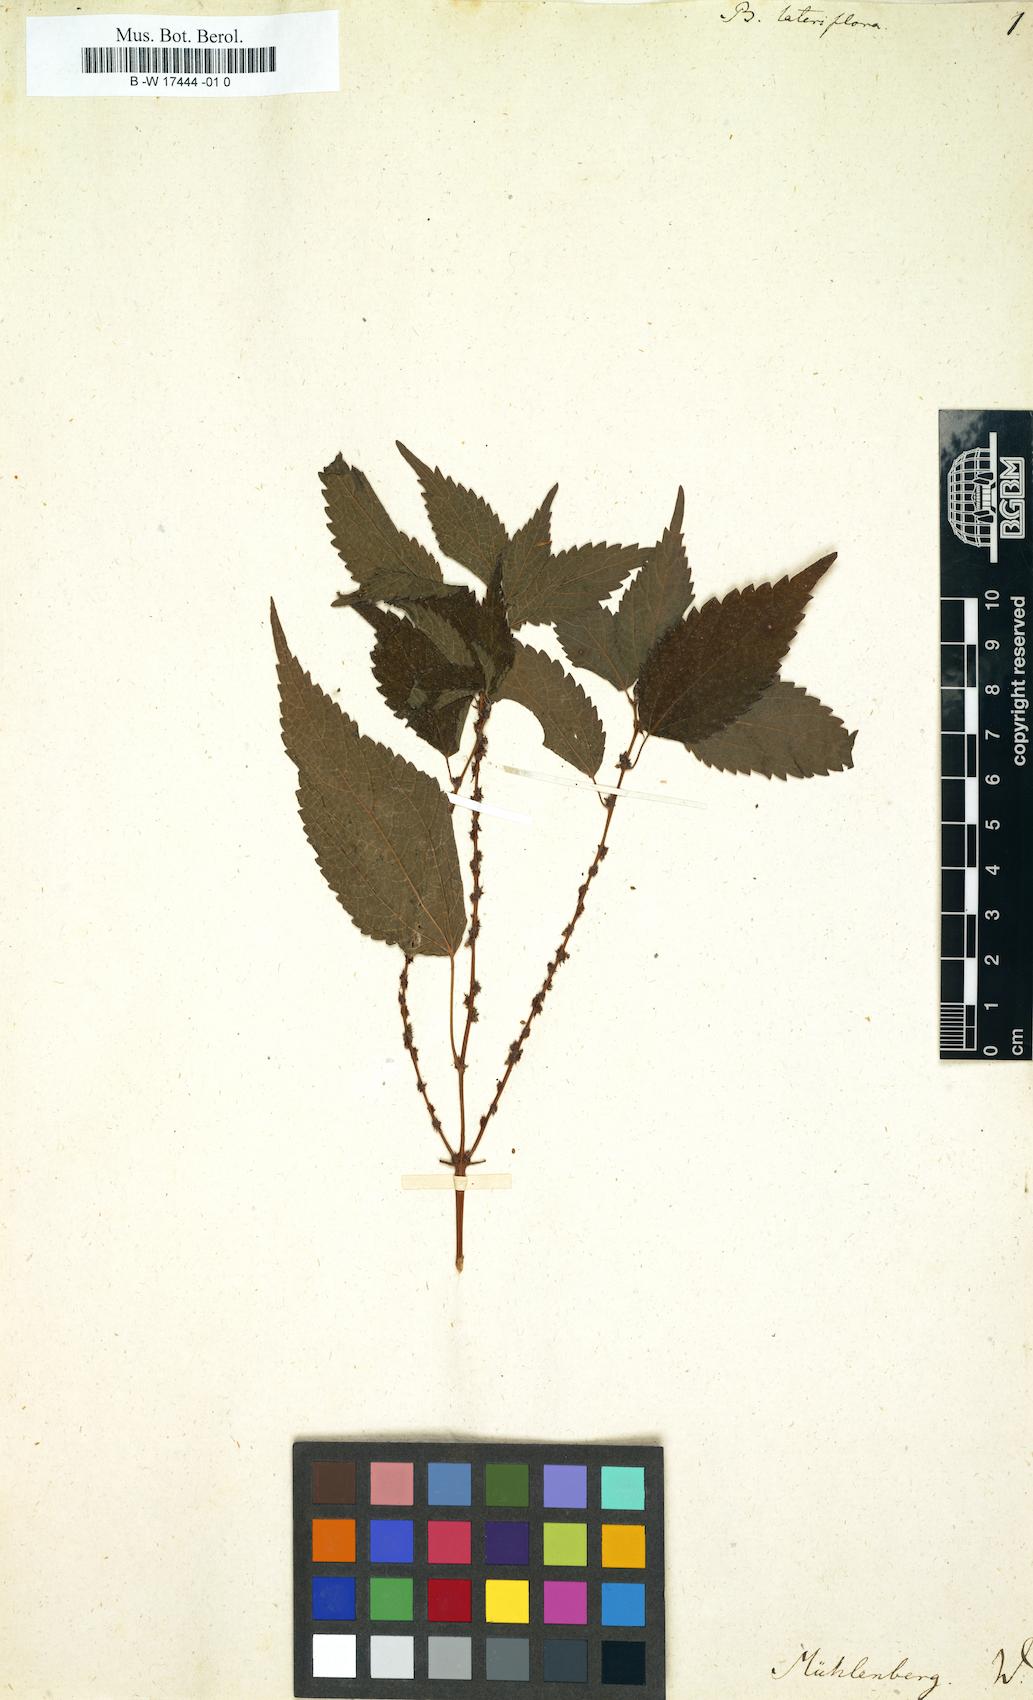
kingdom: Plantae
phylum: Tracheophyta
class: Magnoliopsida
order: Rosales
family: Urticaceae
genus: Boehmeria
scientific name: Boehmeria cylindrica
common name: Bog-hemp
